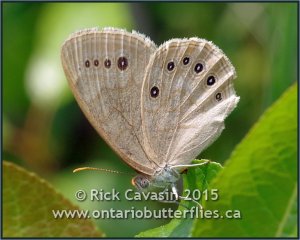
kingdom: Animalia
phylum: Arthropoda
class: Insecta
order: Lepidoptera
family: Nymphalidae
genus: Lethe
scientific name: Lethe eurydice
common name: Eyed Brown
